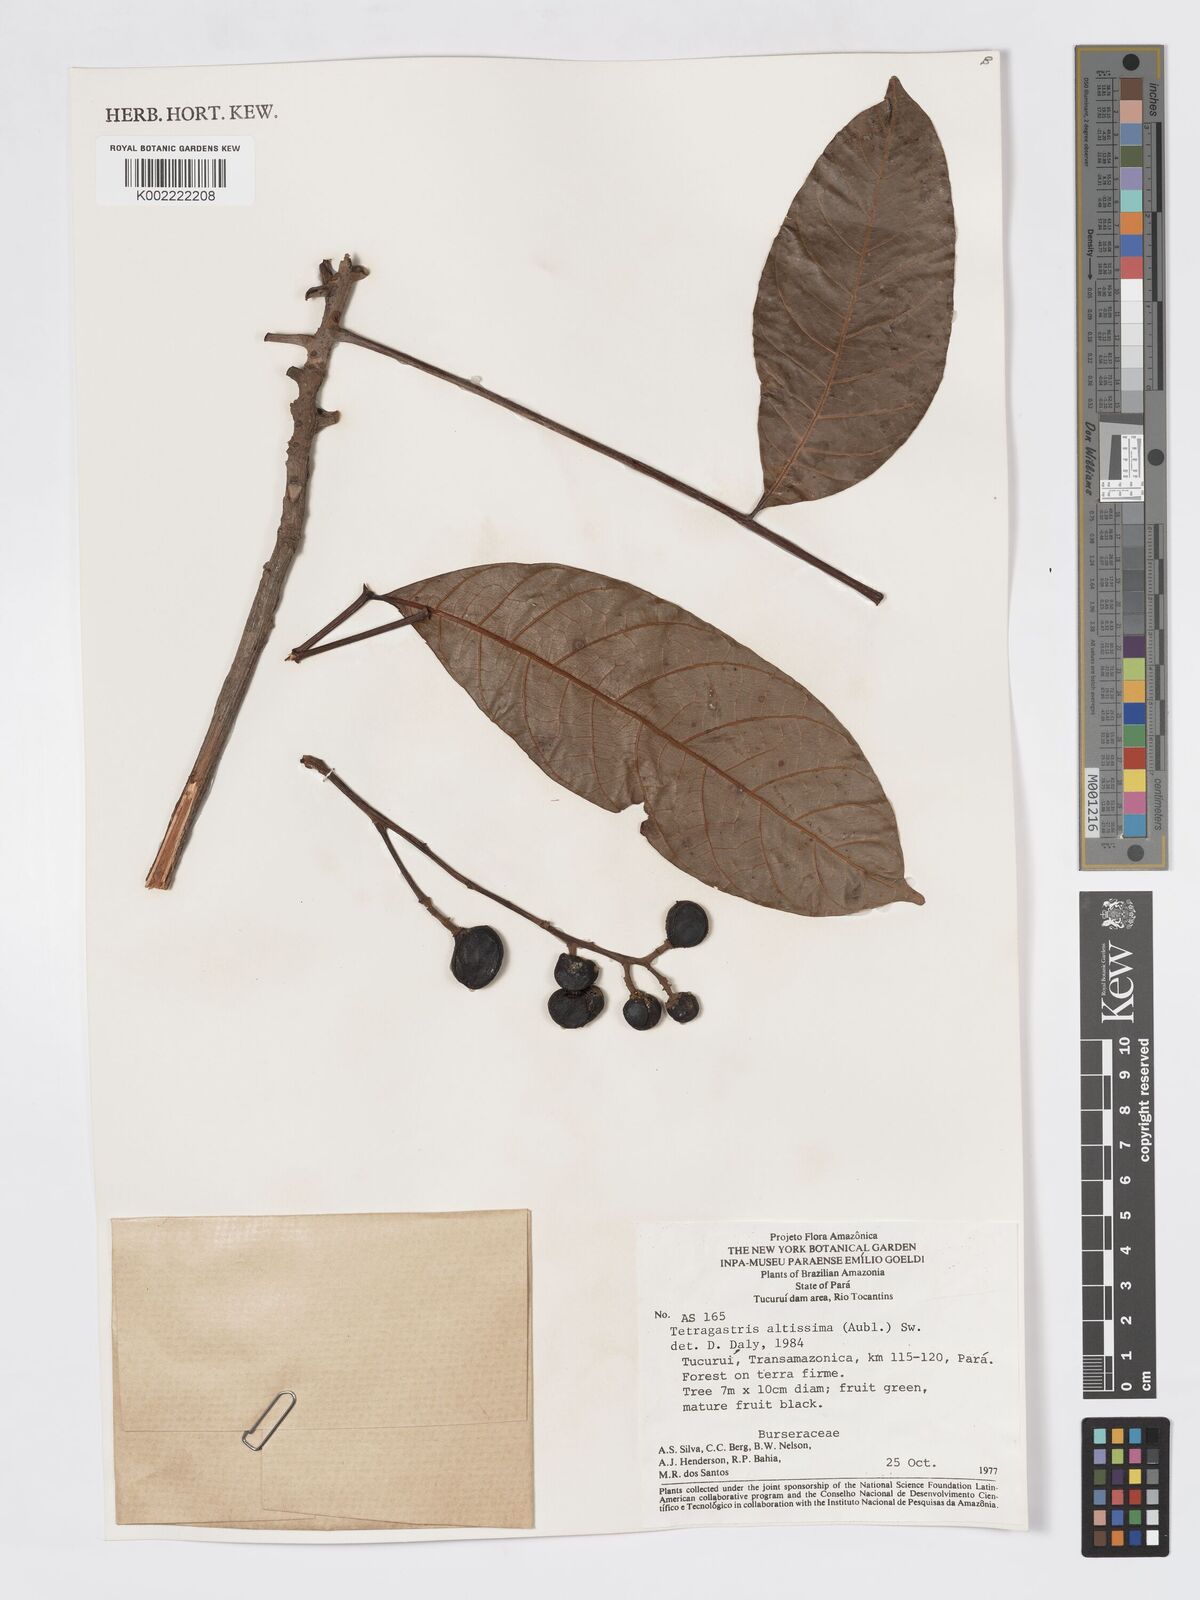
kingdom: Plantae
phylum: Tracheophyta
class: Magnoliopsida
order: Sapindales
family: Burseraceae
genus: Tetragastris
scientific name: Tetragastris altissima
